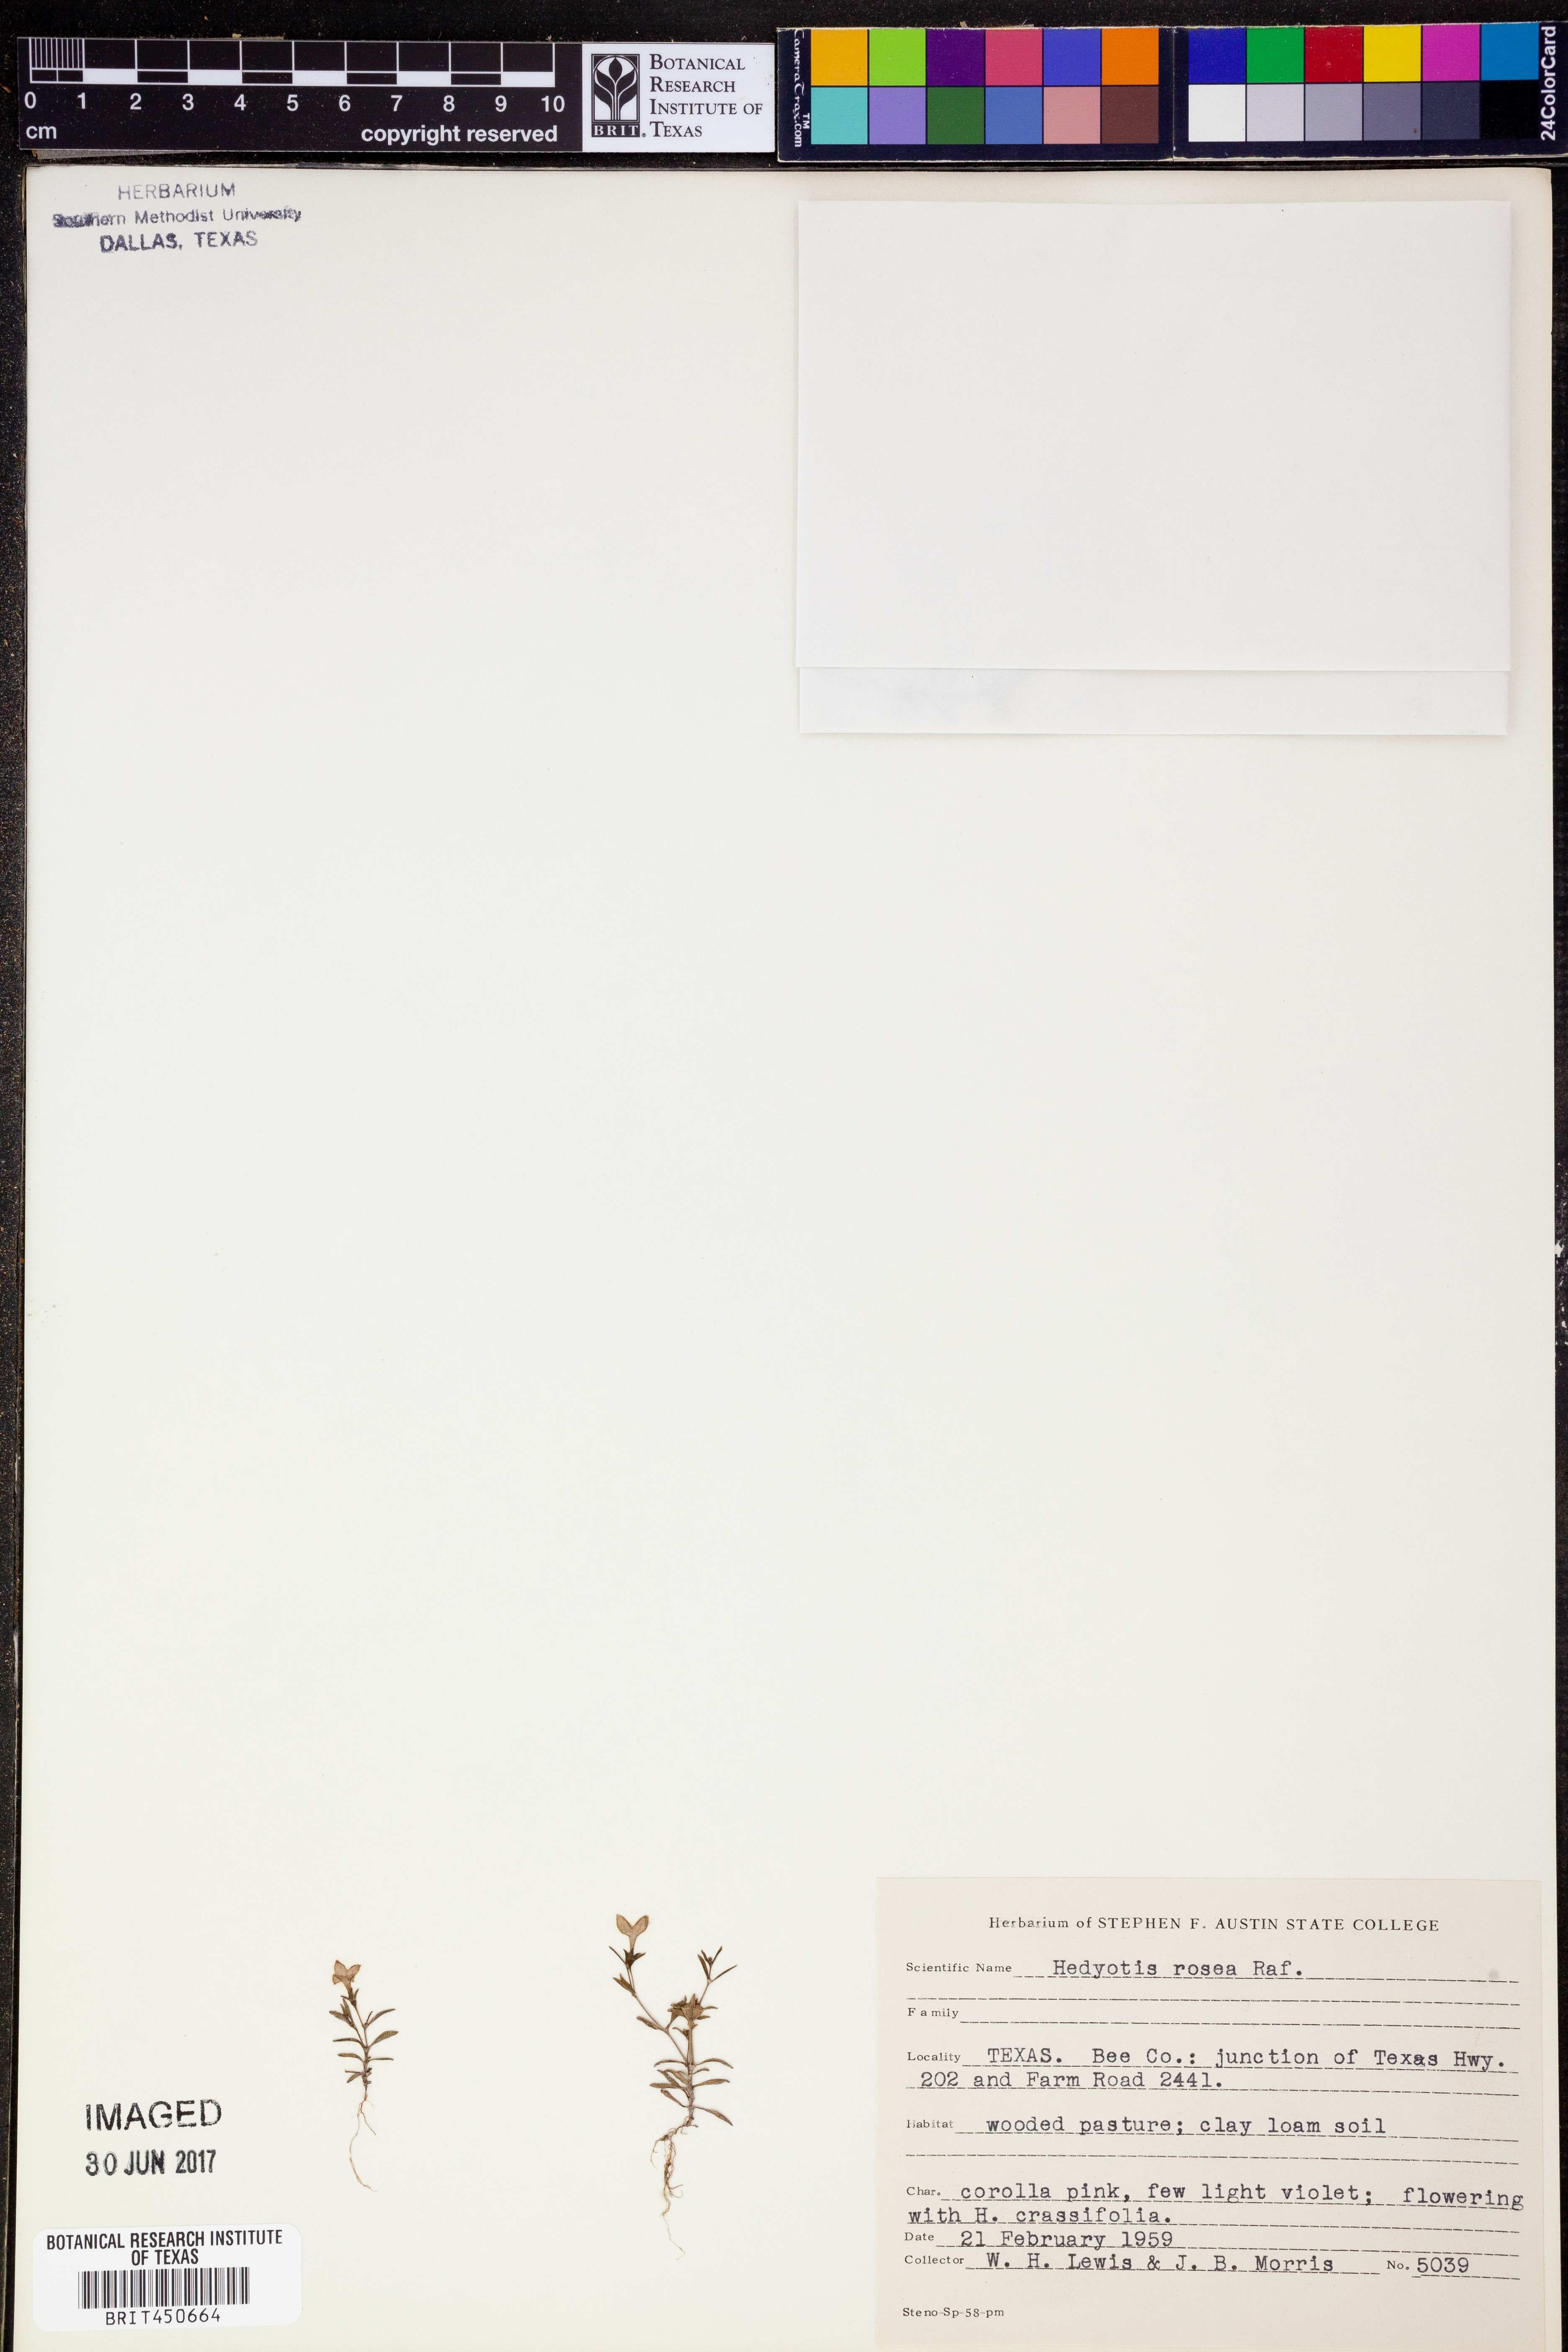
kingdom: Plantae
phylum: Tracheophyta
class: Magnoliopsida
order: Gentianales
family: Rubiaceae
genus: Houstonia
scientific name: Houstonia rosea
